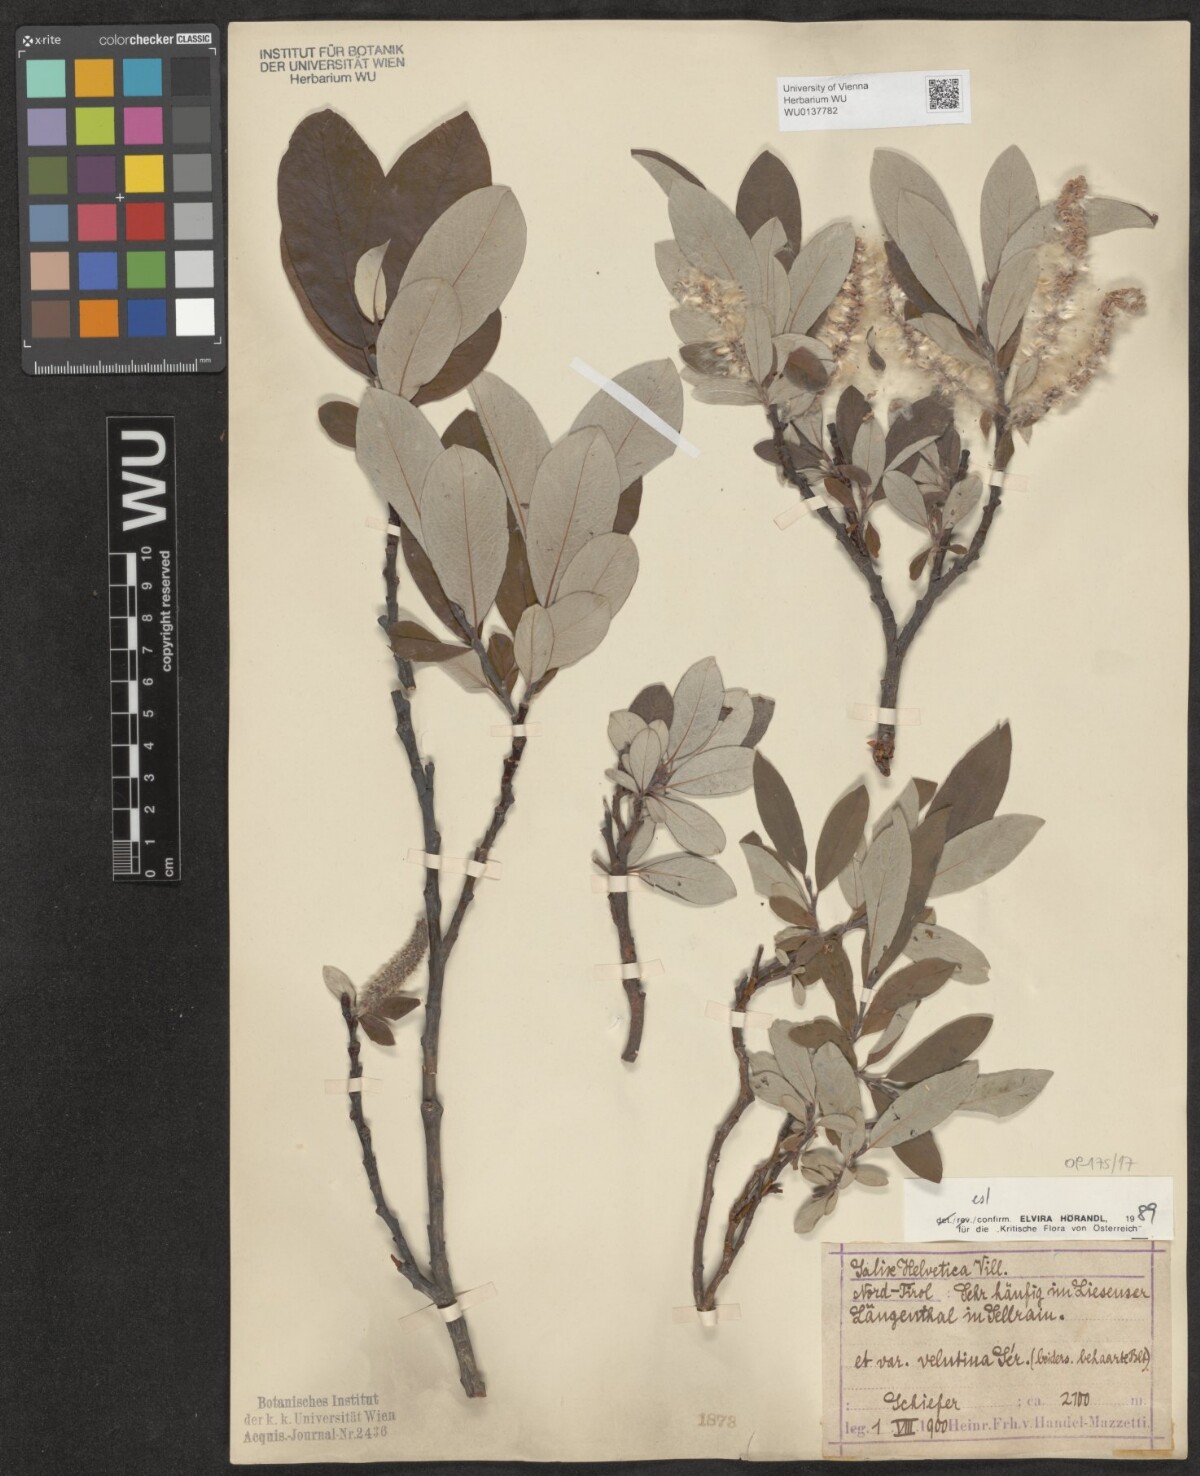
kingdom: Plantae
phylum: Tracheophyta
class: Magnoliopsida
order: Malpighiales
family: Salicaceae
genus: Salix
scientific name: Salix helvetica
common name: Swiss willow
